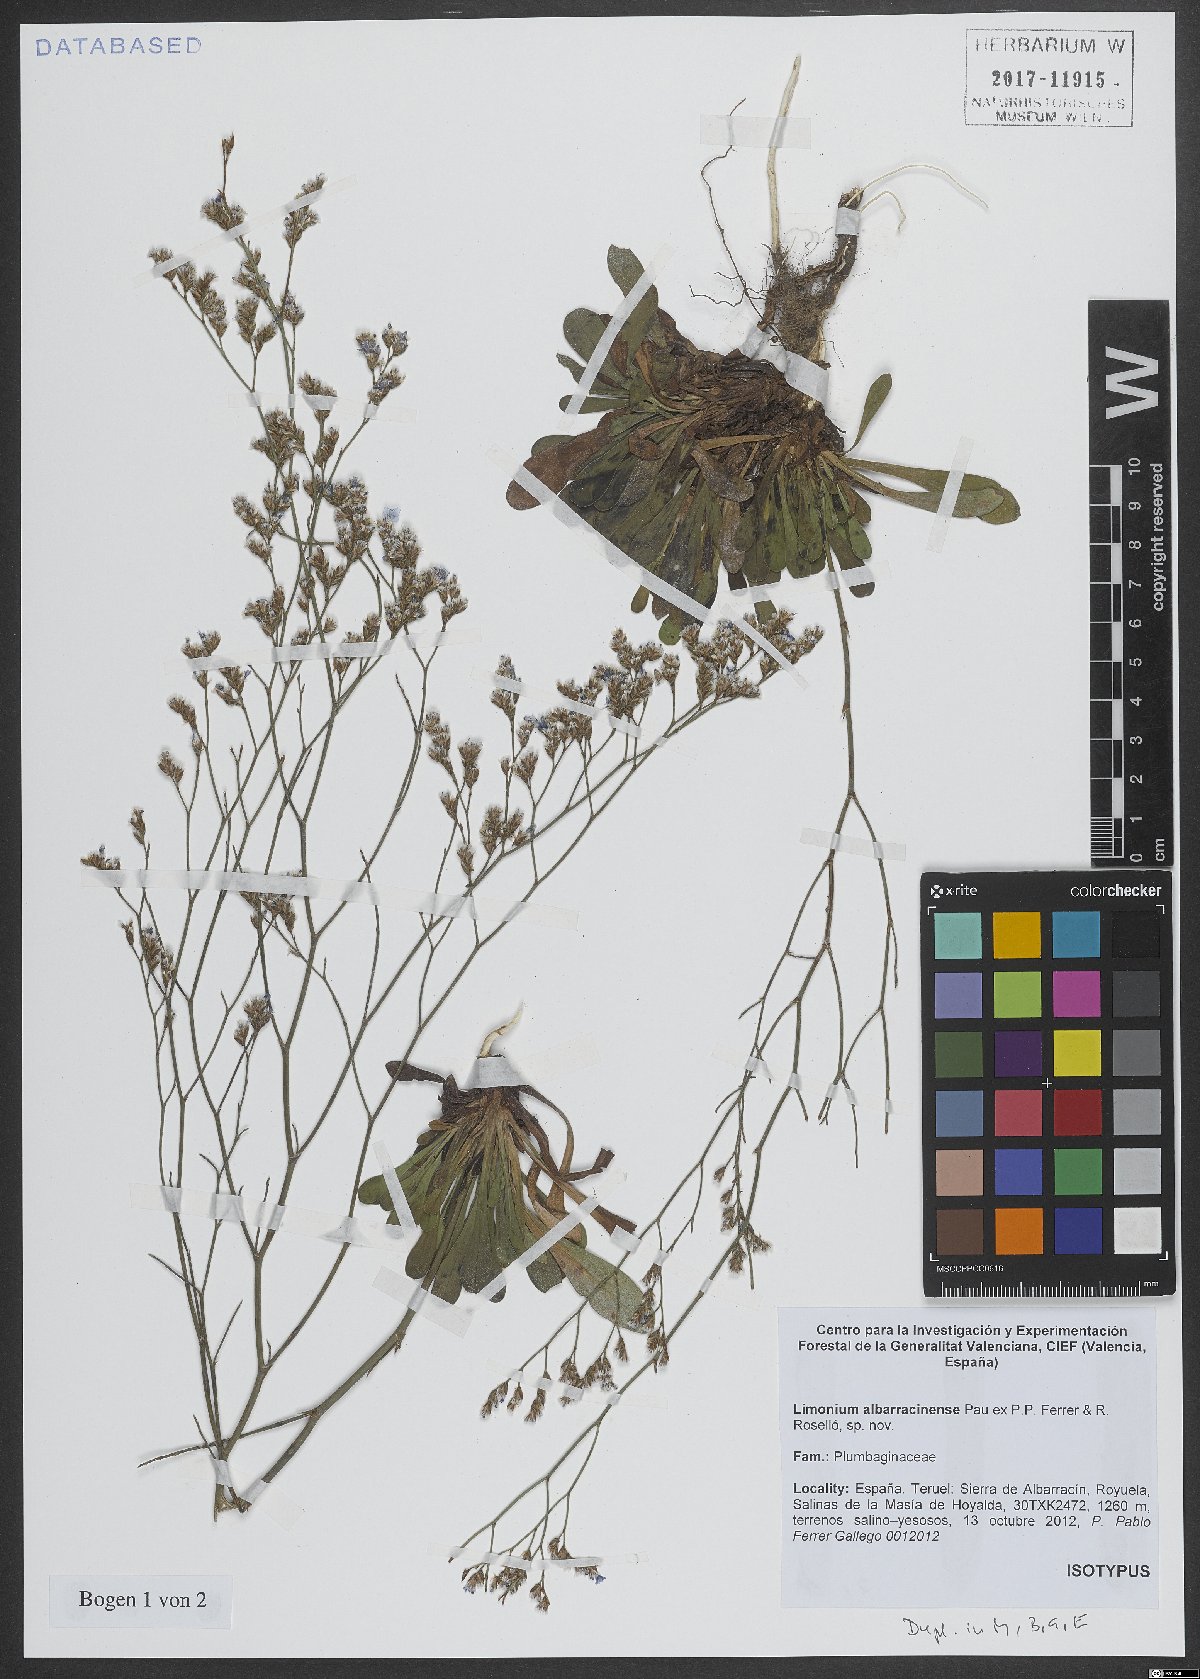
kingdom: Plantae
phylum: Tracheophyta
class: Magnoliopsida
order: Caryophyllales
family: Plumbaginaceae
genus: Limonium
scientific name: Limonium albarracinense
